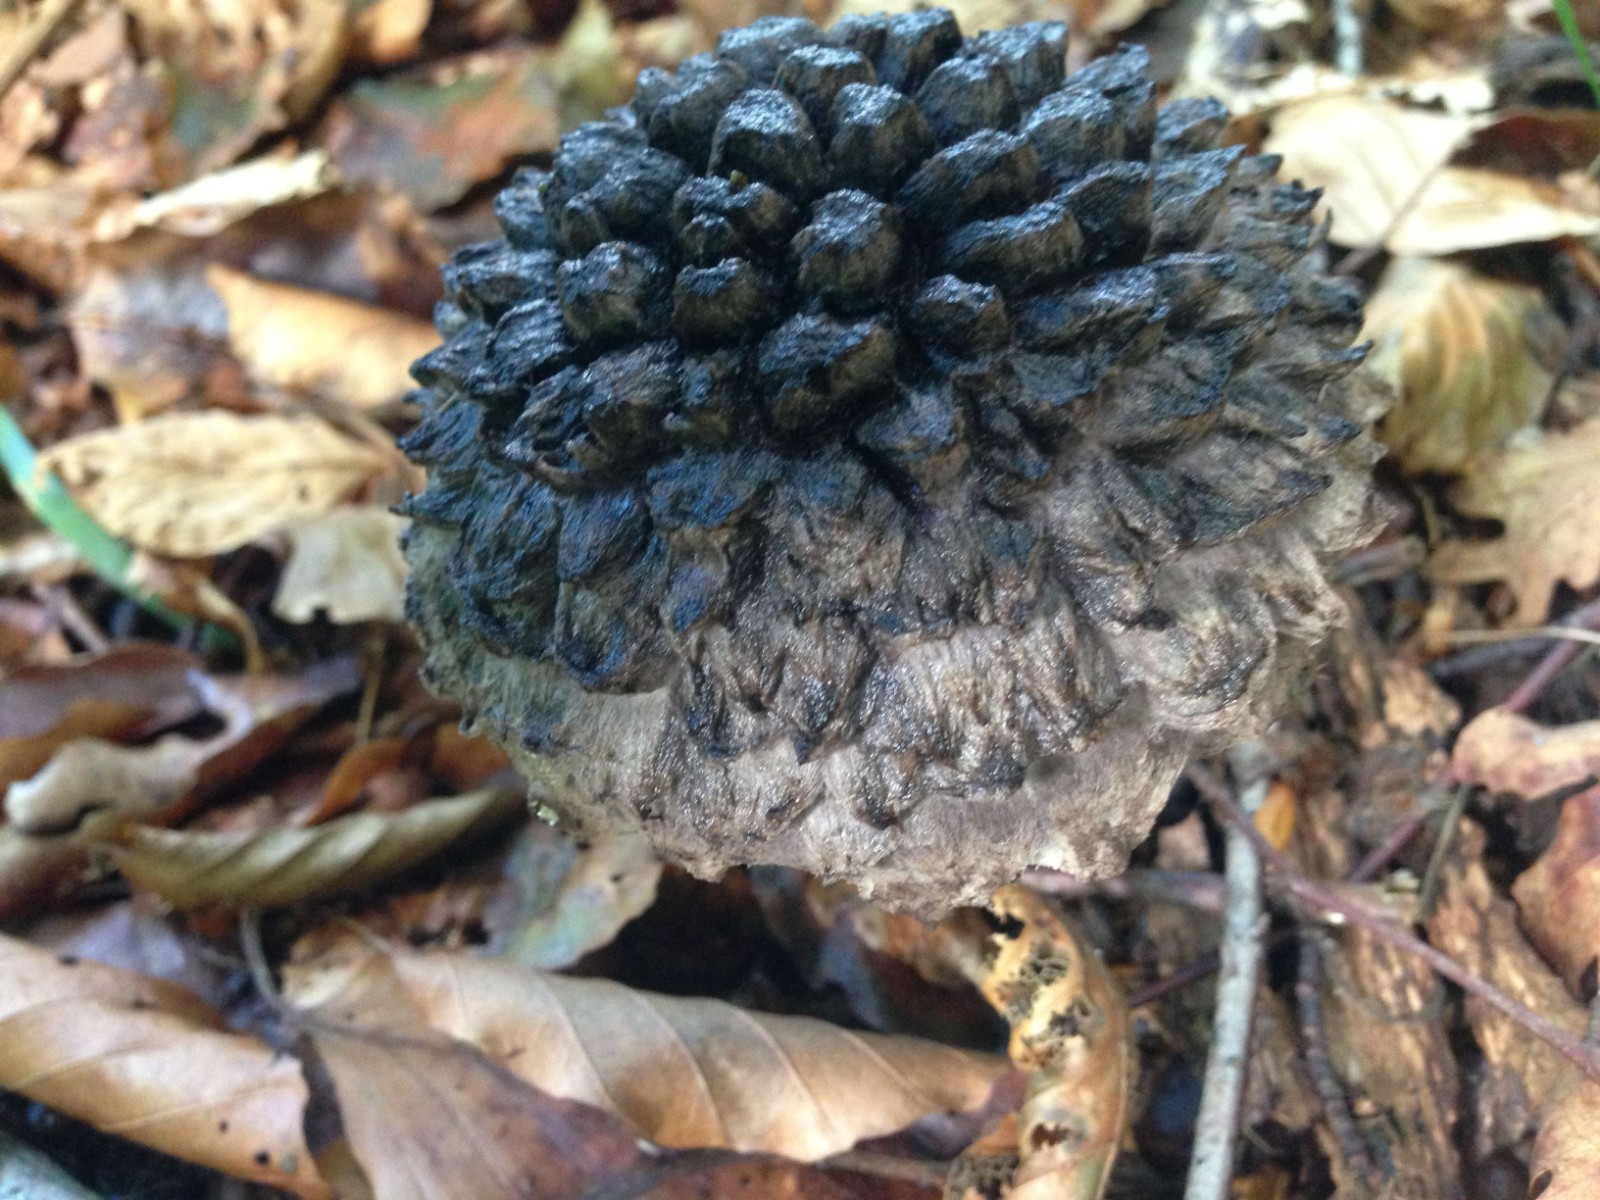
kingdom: Fungi
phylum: Basidiomycota
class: Agaricomycetes
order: Boletales
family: Boletaceae
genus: Strobilomyces
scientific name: Strobilomyces strobilaceus
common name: koglerørhat
